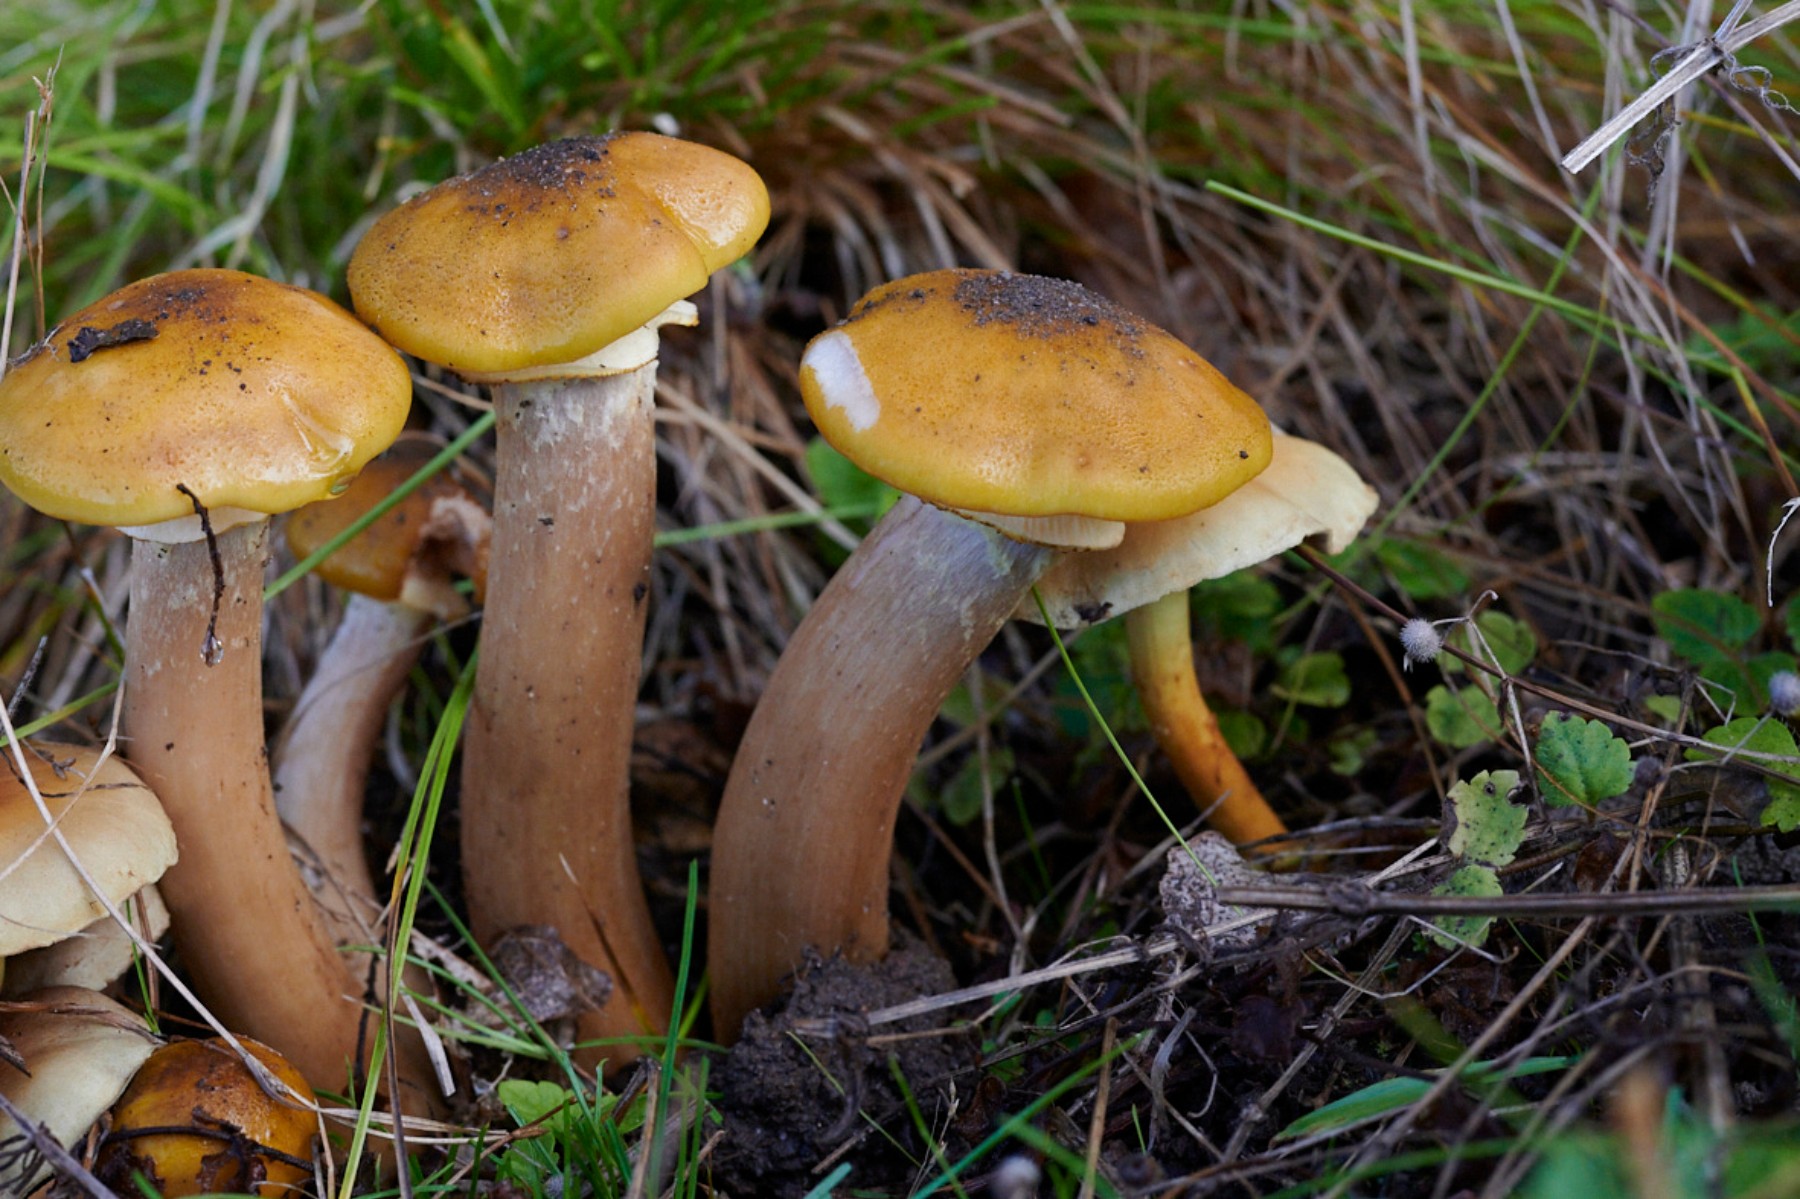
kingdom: Fungi
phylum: Basidiomycota
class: Agaricomycetes
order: Agaricales
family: Physalacriaceae
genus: Armillaria
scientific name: Armillaria mellea
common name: ægte honningsvamp
